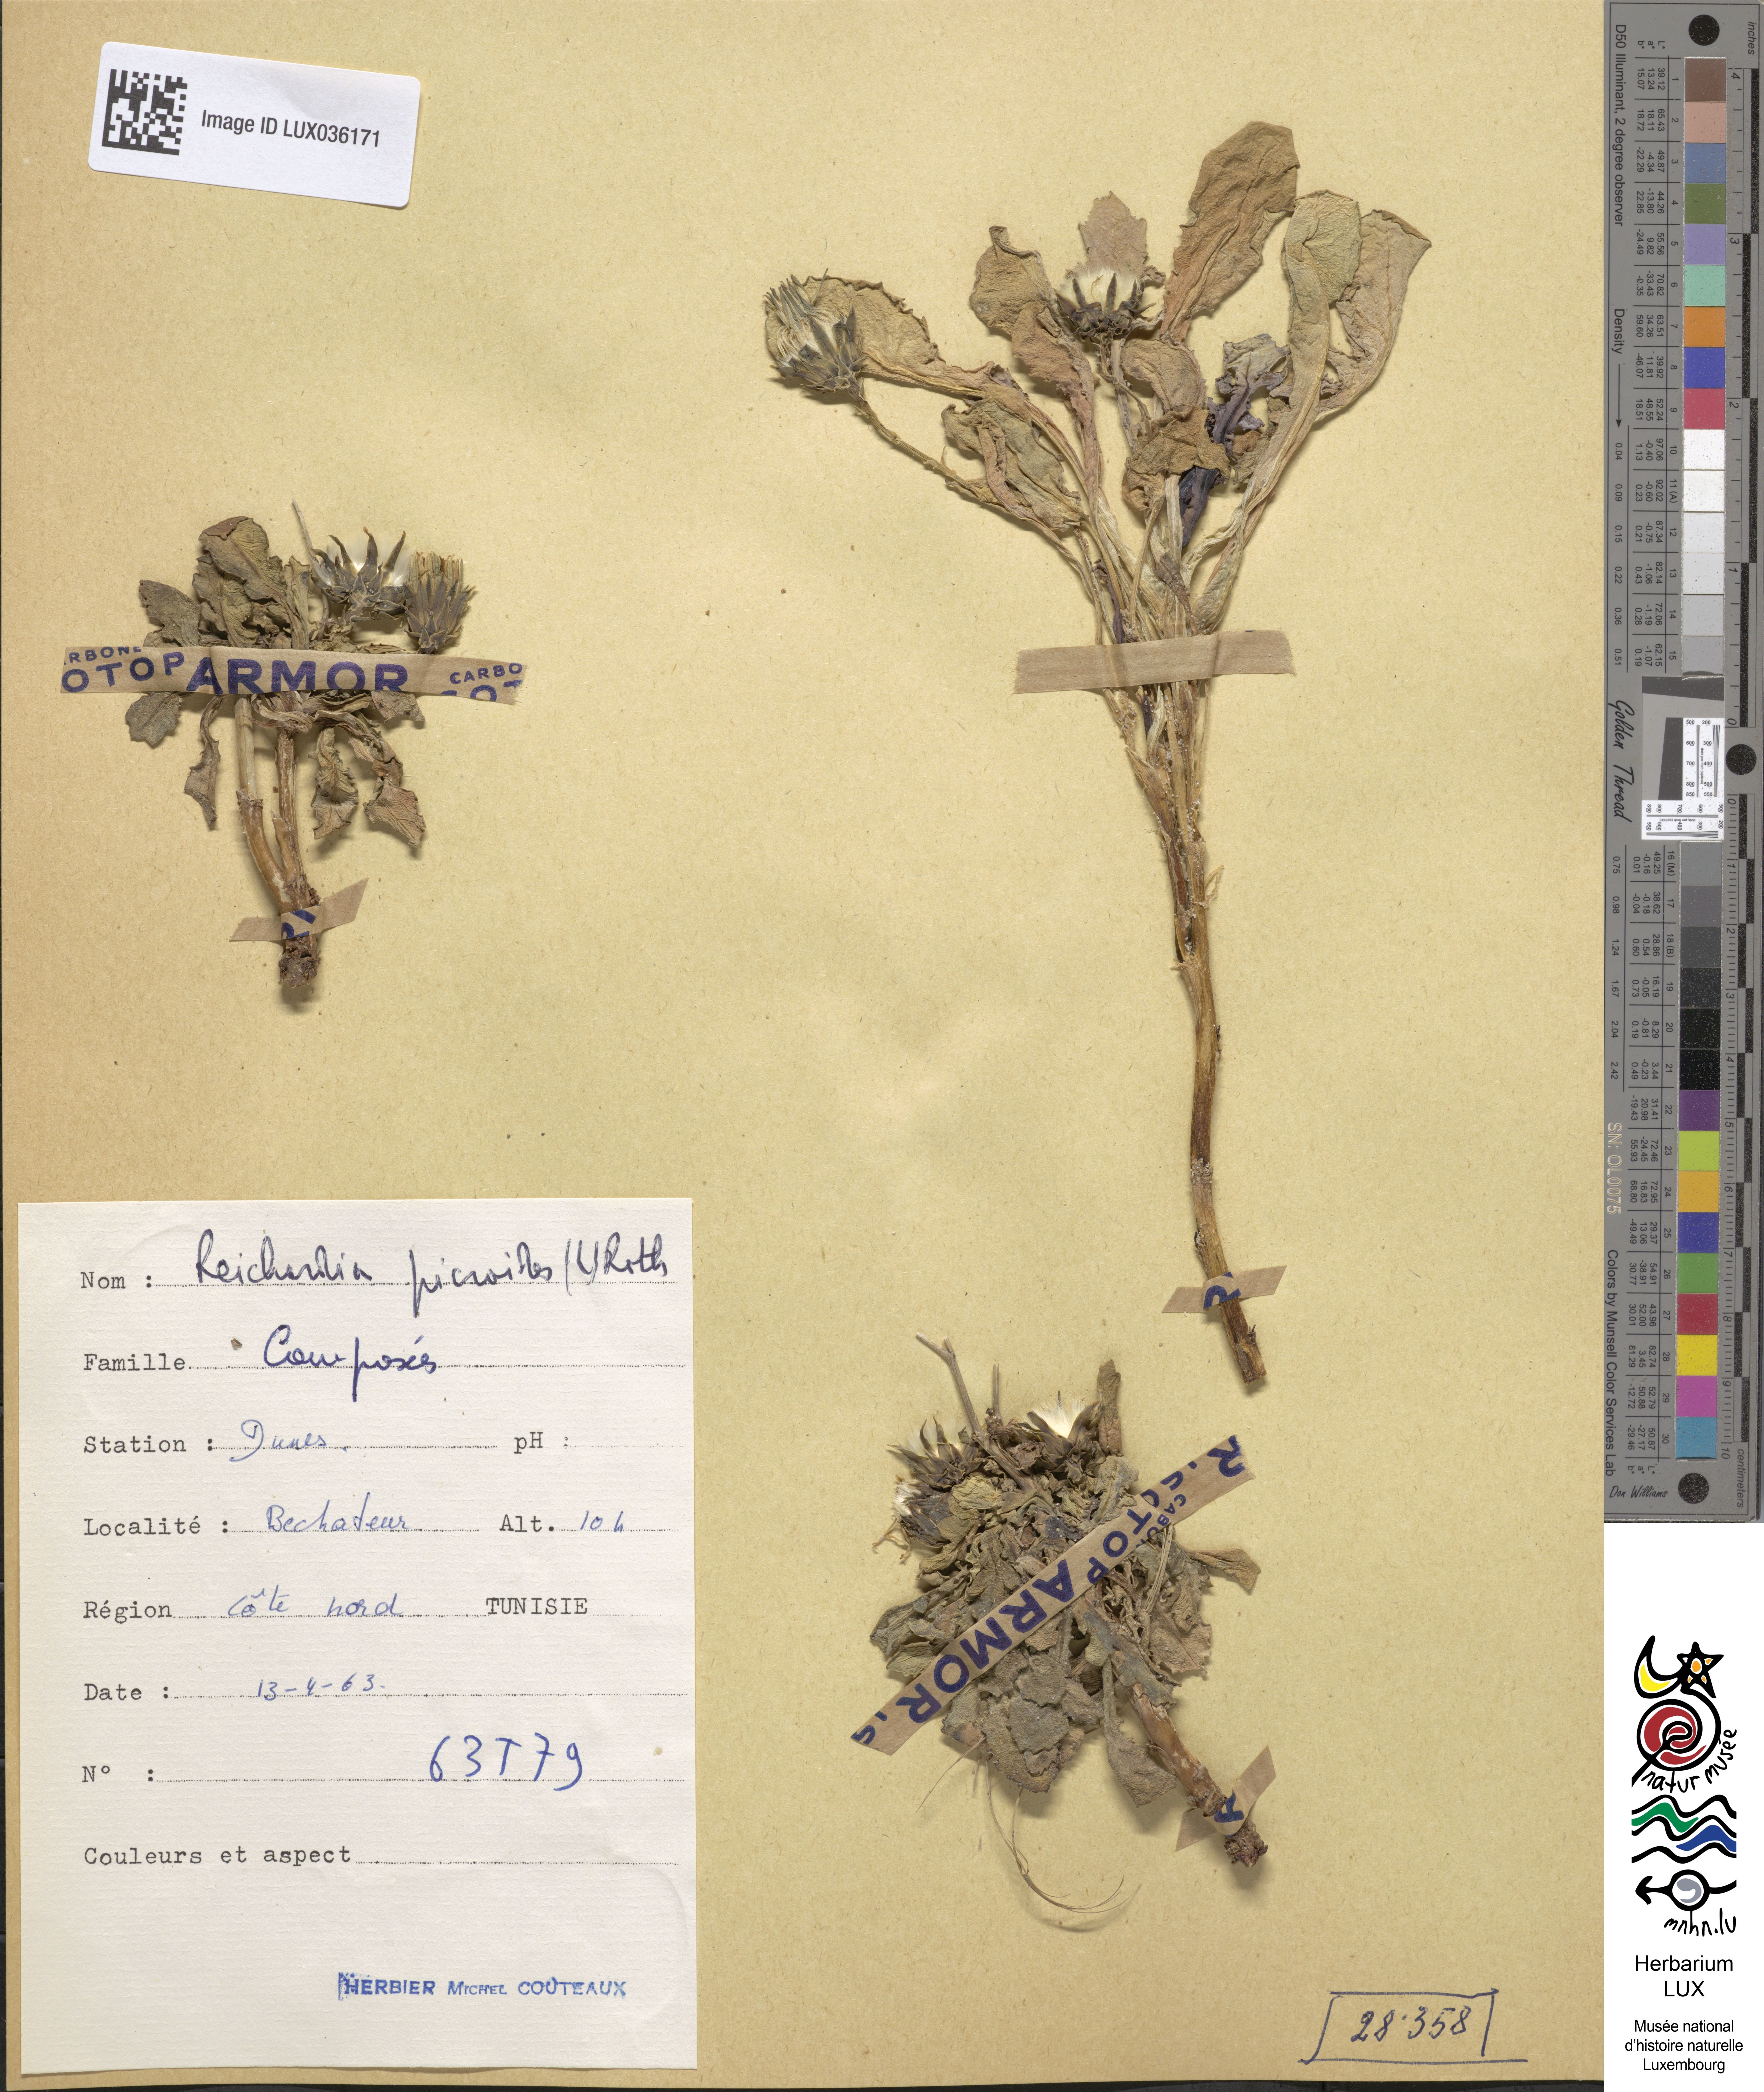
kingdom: Plantae
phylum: Tracheophyta
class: Magnoliopsida
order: Asterales
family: Asteraceae
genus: Reichardia
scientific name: Reichardia picroides
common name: Common brighteyes
